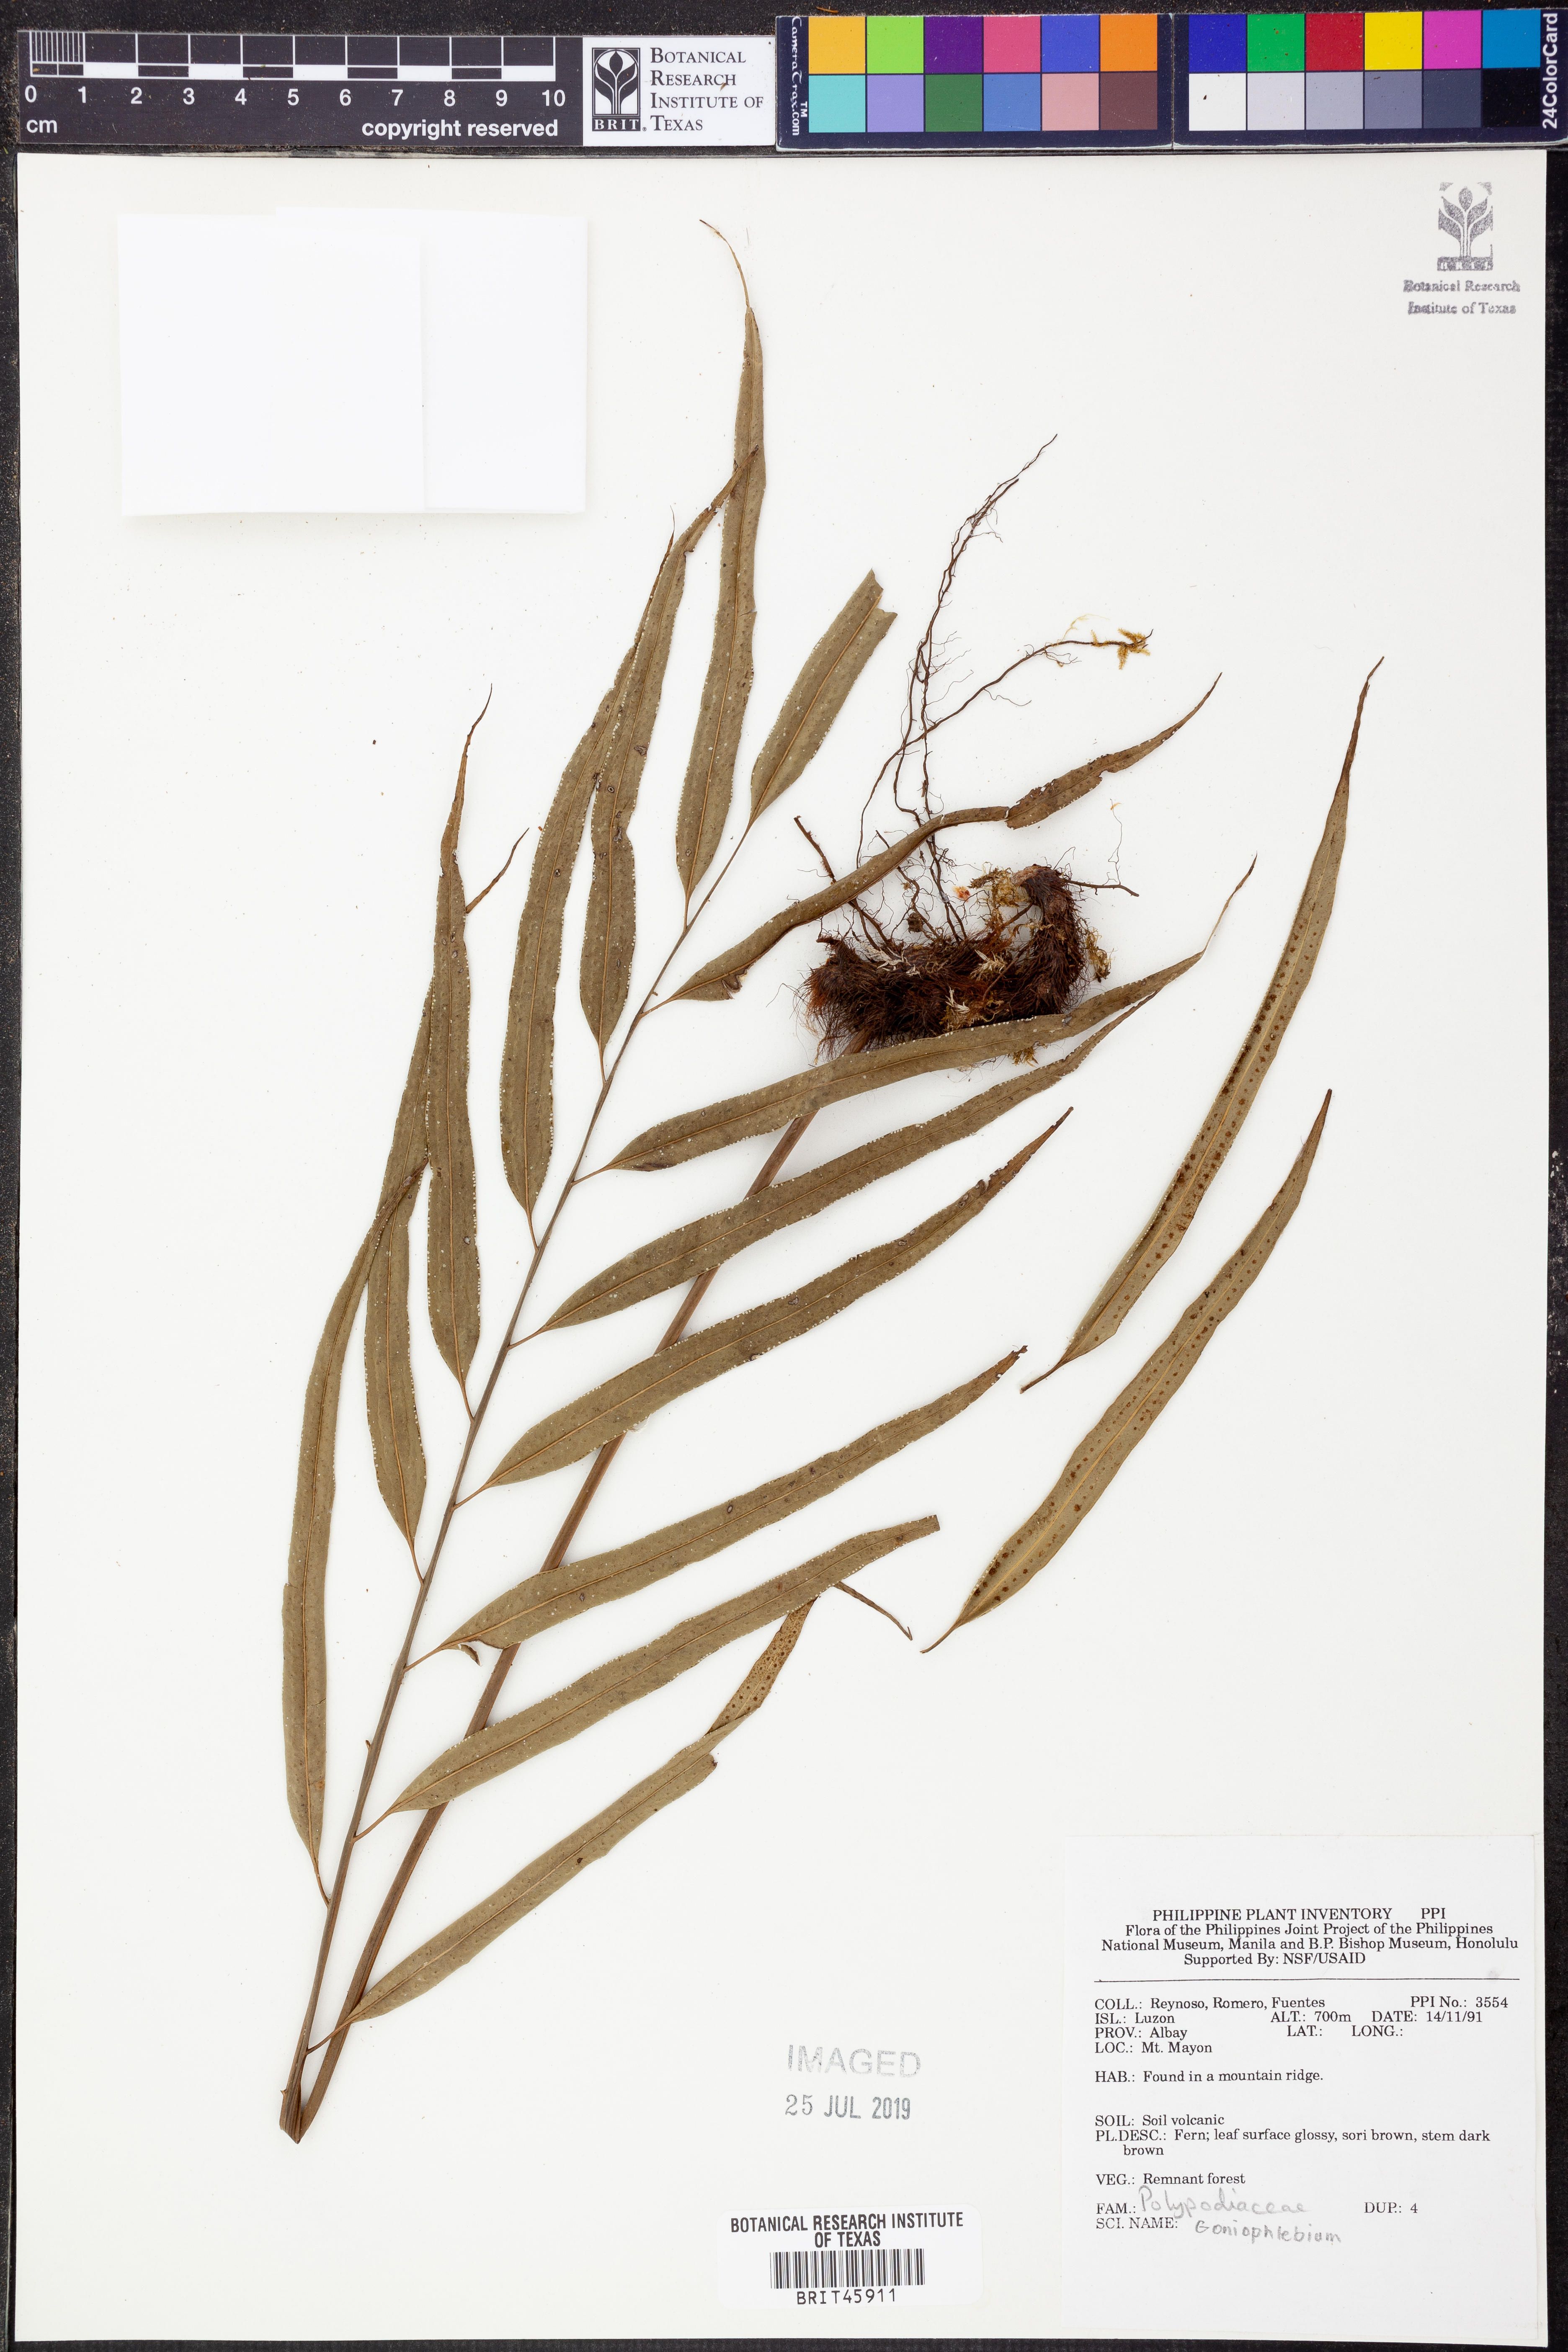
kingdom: Plantae
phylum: Tracheophyta
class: Polypodiopsida
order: Polypodiales
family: Polypodiaceae
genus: Goniophlebium
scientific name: Goniophlebium
